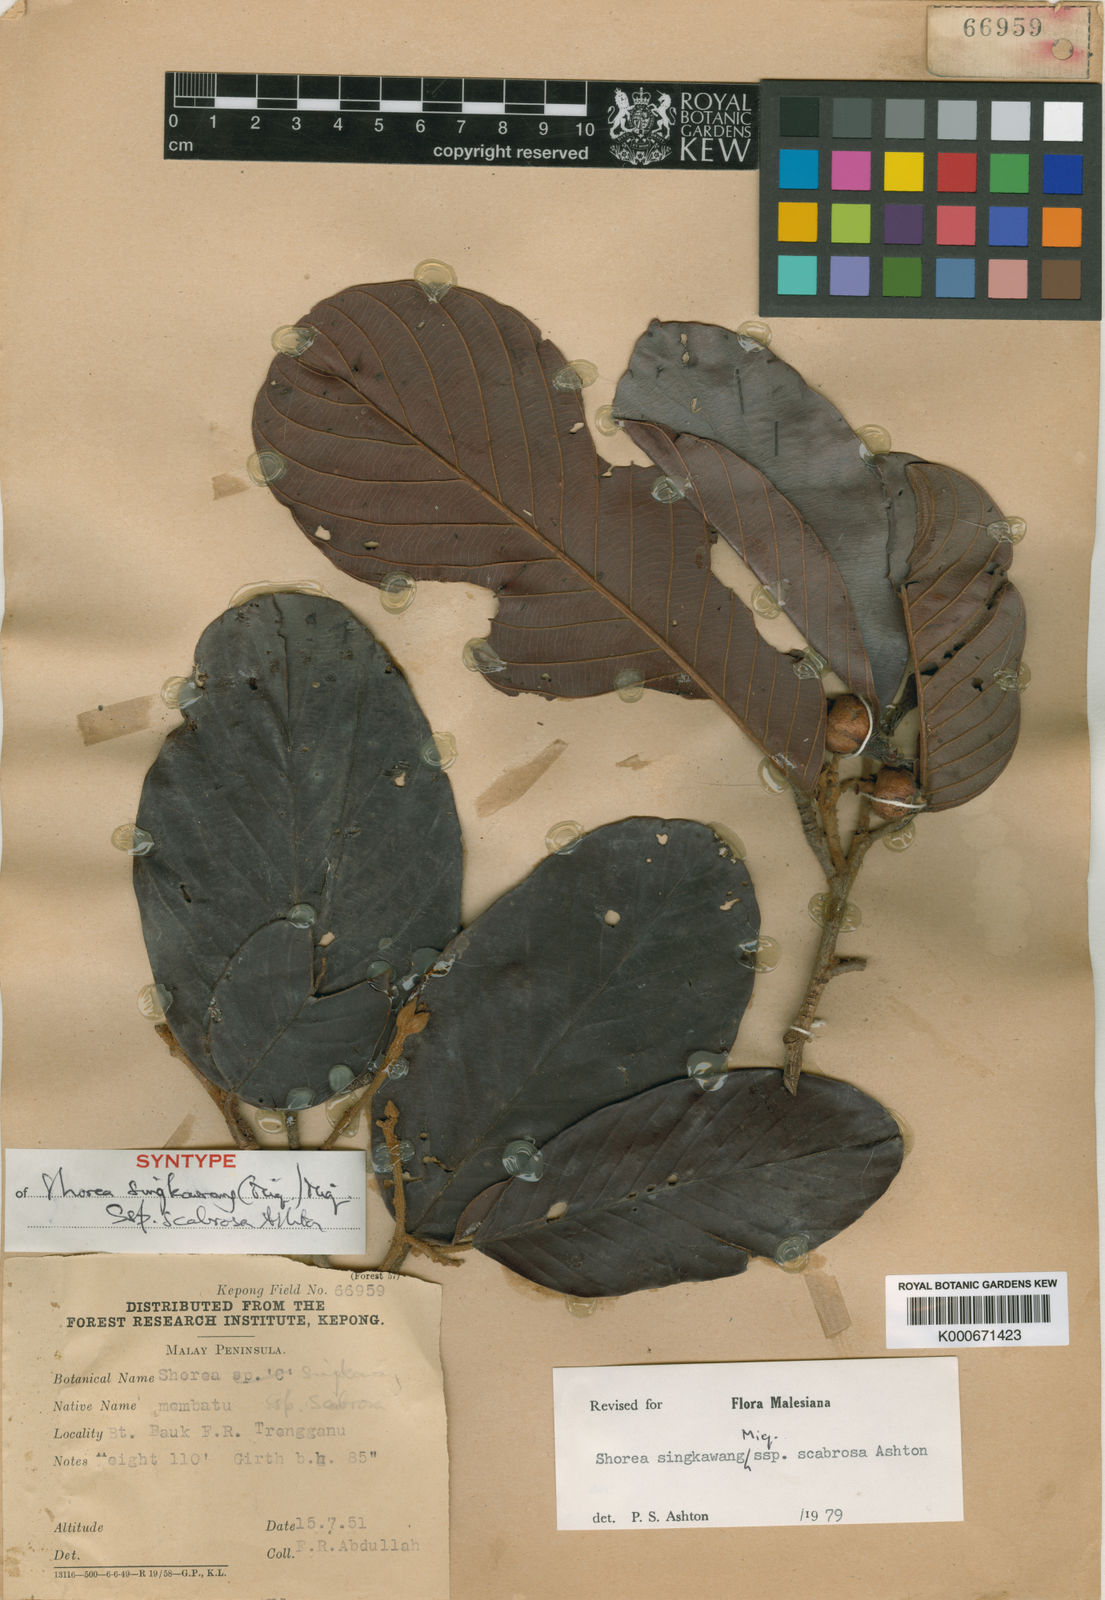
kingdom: Plantae
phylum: Tracheophyta
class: Magnoliopsida
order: Malvales
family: Dipterocarpaceae
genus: Shorea
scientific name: Shorea singkawang
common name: Dark red meranti
